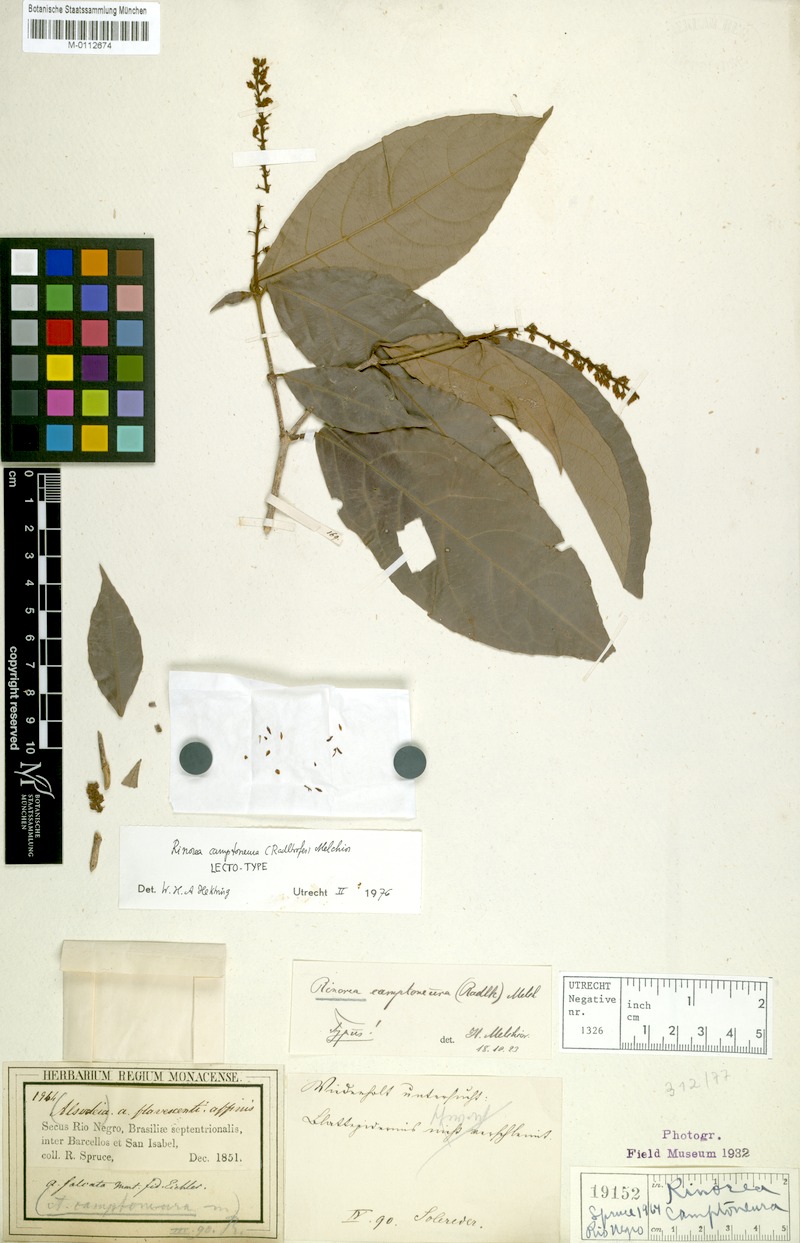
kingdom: Plantae
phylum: Tracheophyta
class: Magnoliopsida
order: Malpighiales
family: Violaceae
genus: Rinorea
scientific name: Rinorea camptoneura
